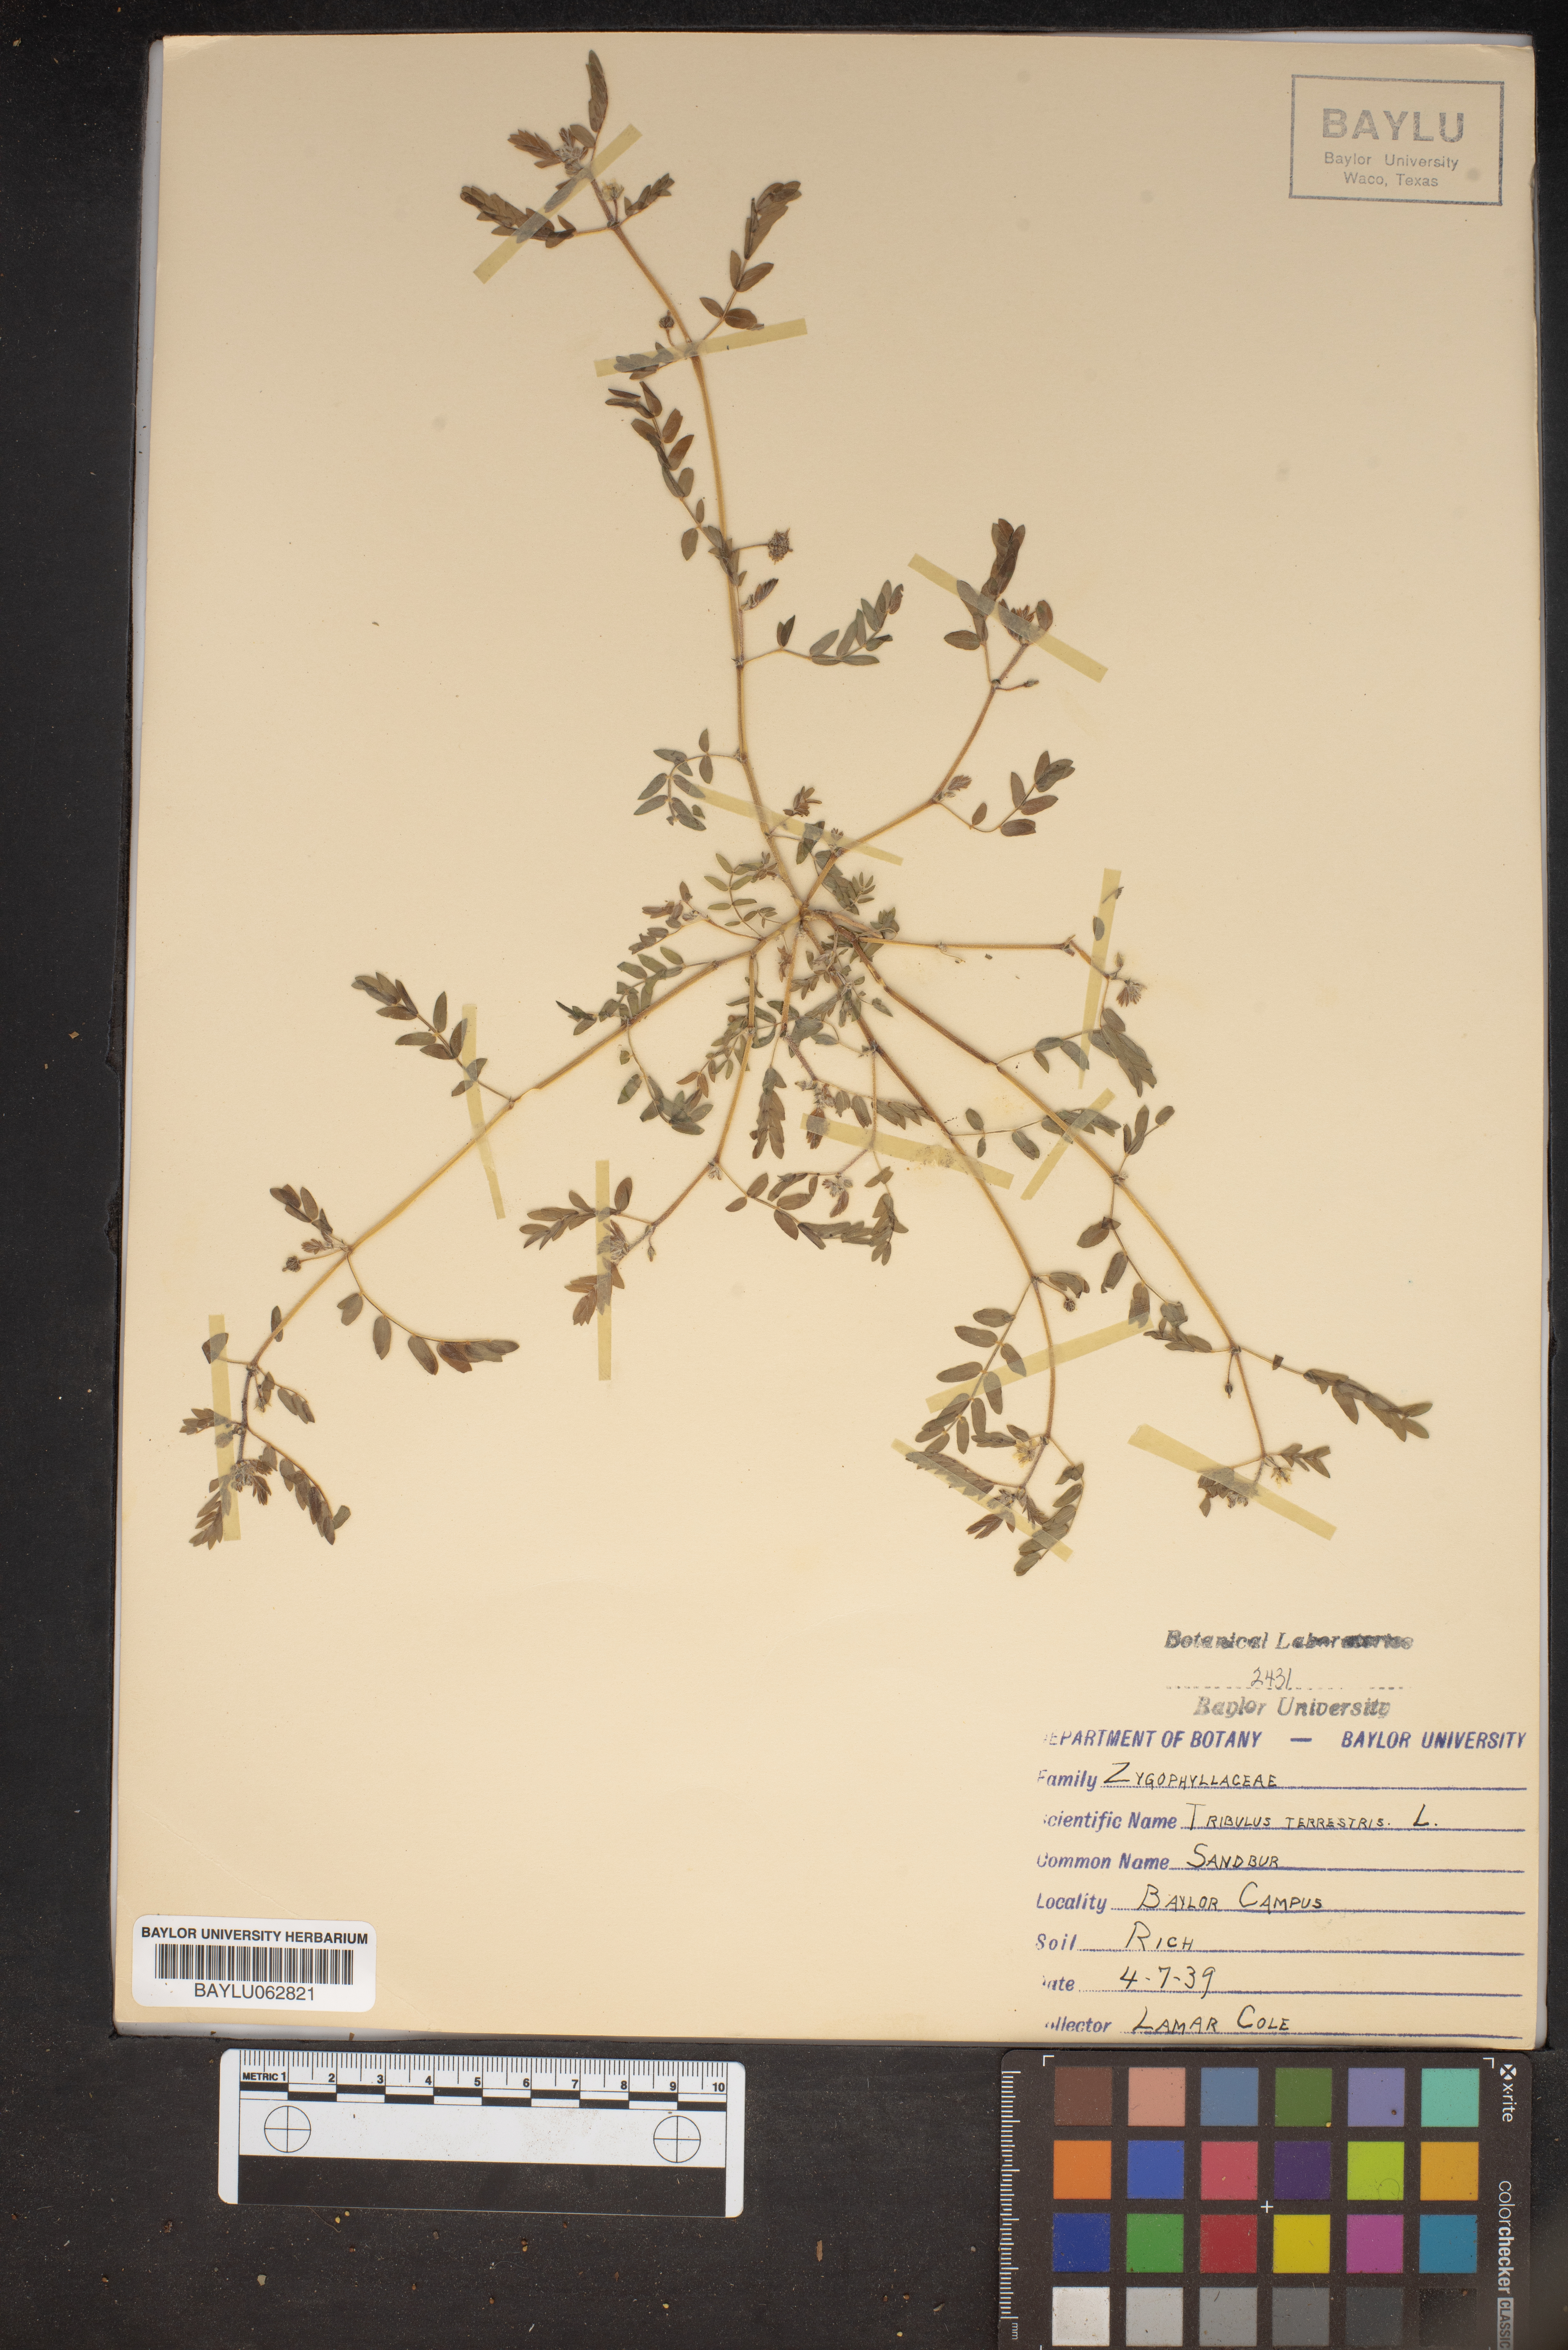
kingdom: Plantae
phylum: Tracheophyta
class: Magnoliopsida
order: Zygophyllales
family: Zygophyllaceae
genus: Tribulus
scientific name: Tribulus terrestris
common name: Puncturevine
